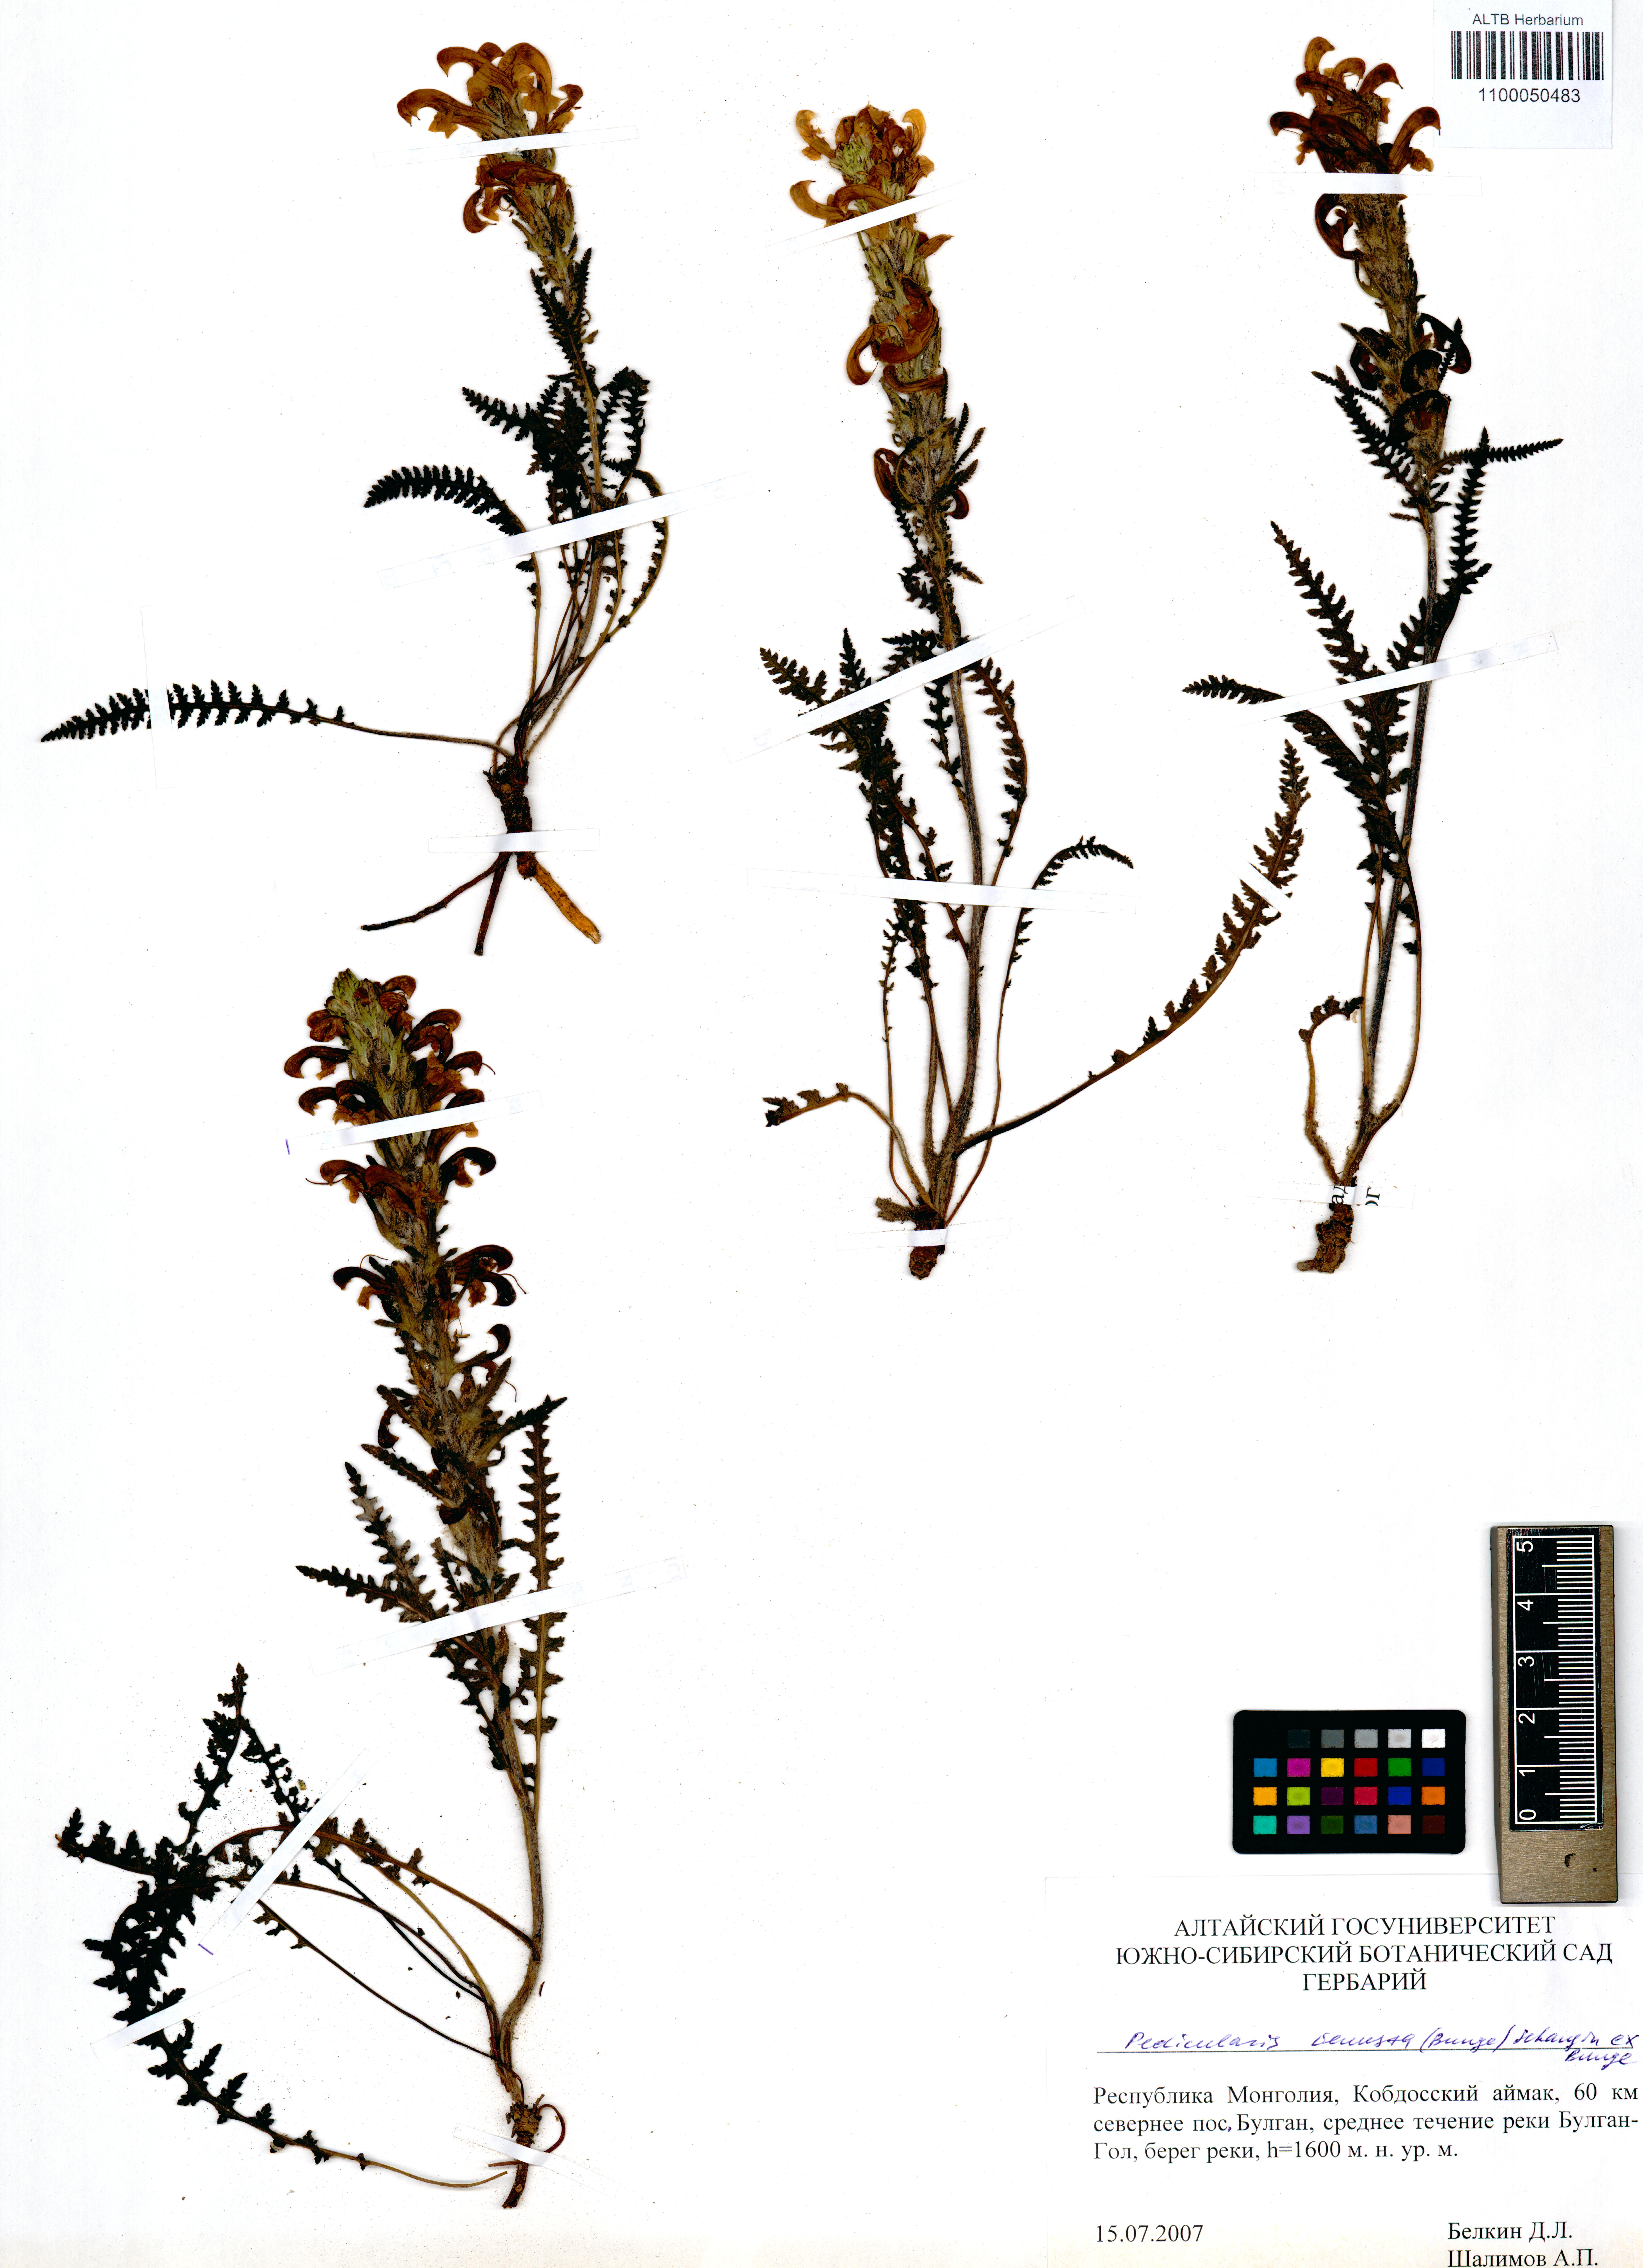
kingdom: Plantae
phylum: Tracheophyta
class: Magnoliopsida
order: Lamiales
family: Orobanchaceae
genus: Pedicularis
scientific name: Pedicularis venusta
